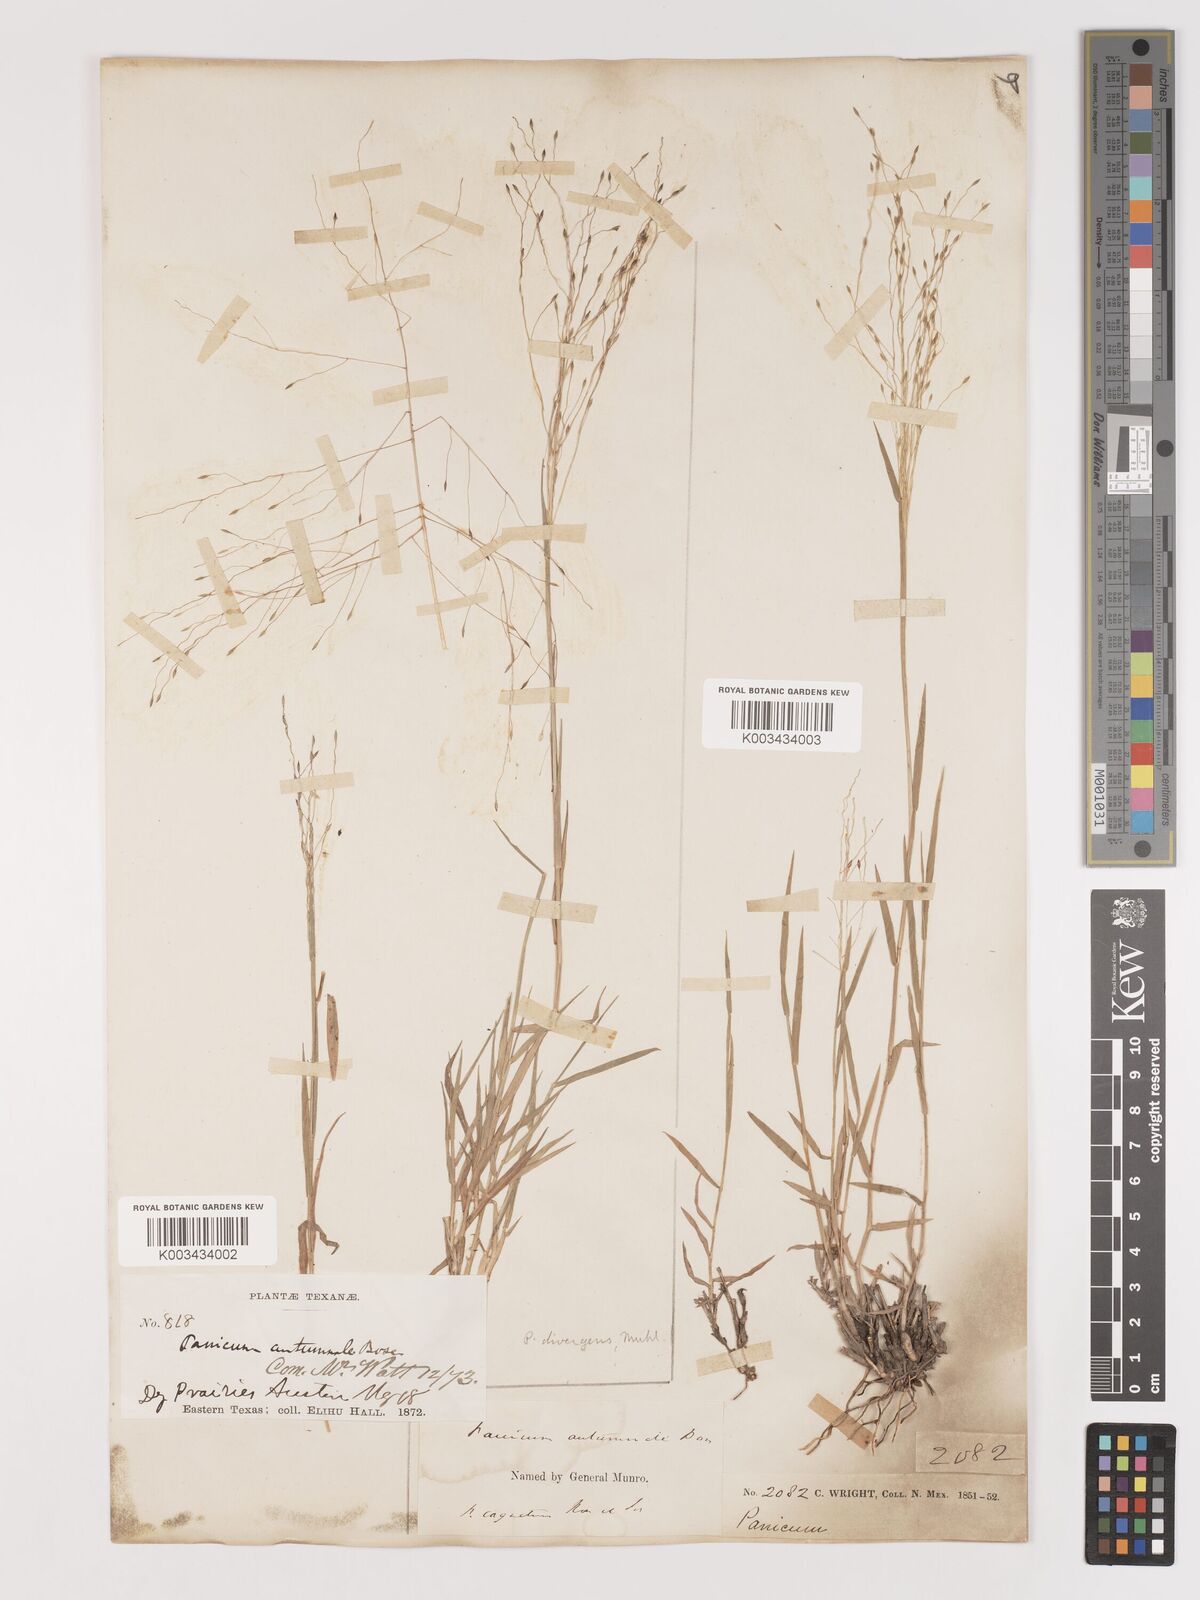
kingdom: Plantae
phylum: Tracheophyta
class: Liliopsida
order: Poales
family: Poaceae
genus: Digitaria
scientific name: Digitaria
